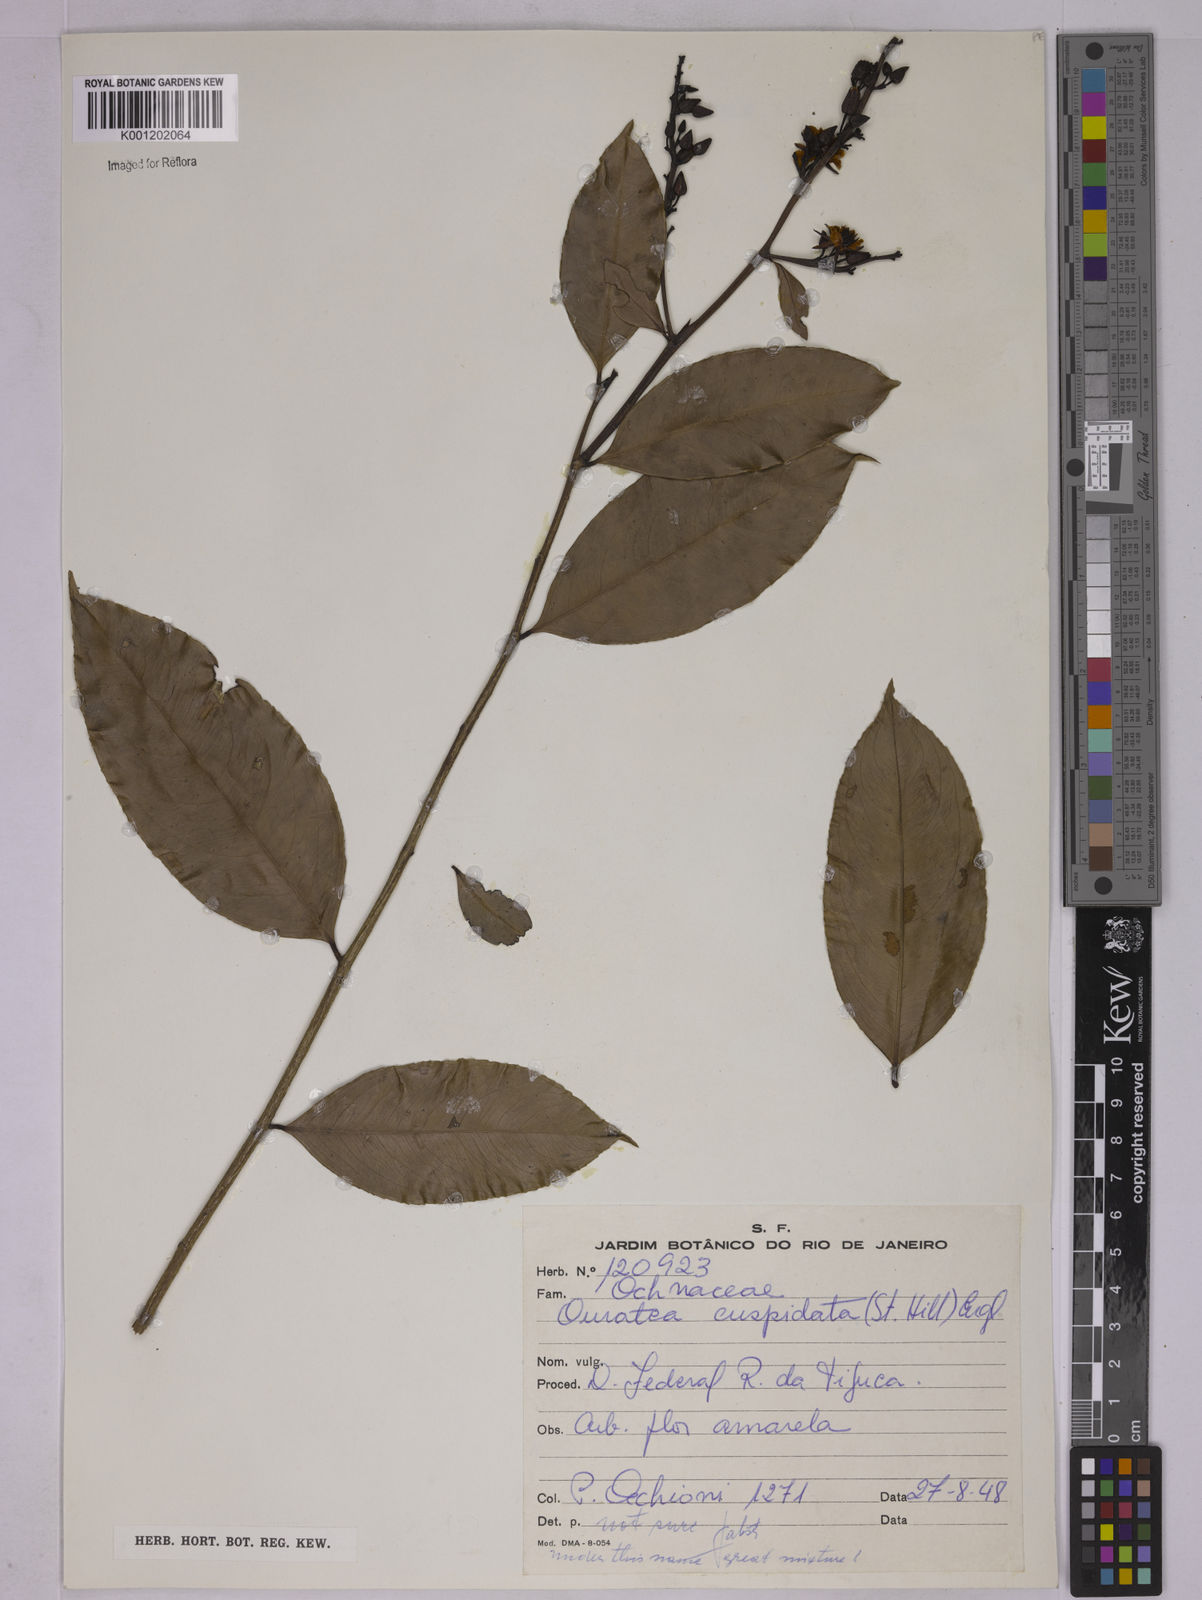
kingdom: Plantae
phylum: Tracheophyta
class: Magnoliopsida
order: Malpighiales
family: Ochnaceae
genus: Ouratea
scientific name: Ouratea cuspidata
